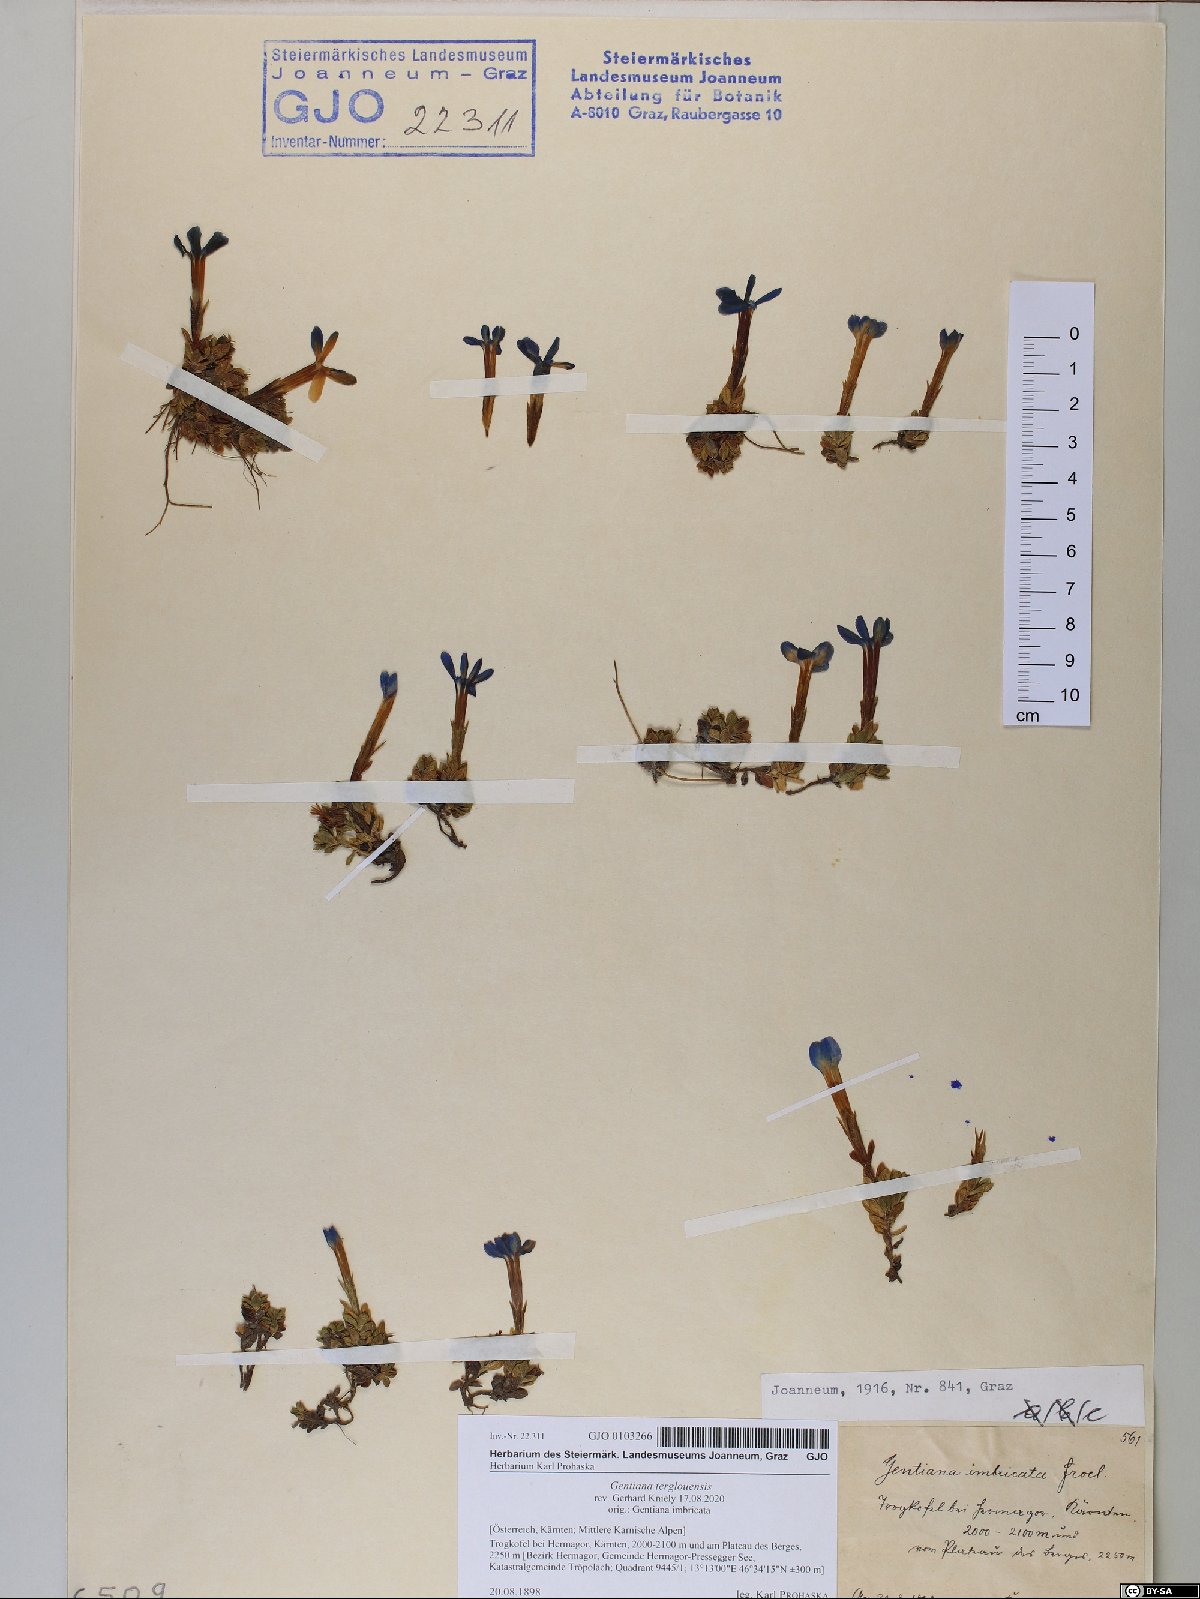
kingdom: Plantae
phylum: Tracheophyta
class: Magnoliopsida
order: Gentianales
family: Gentianaceae
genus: Gentiana
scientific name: Gentiana terglouensis
